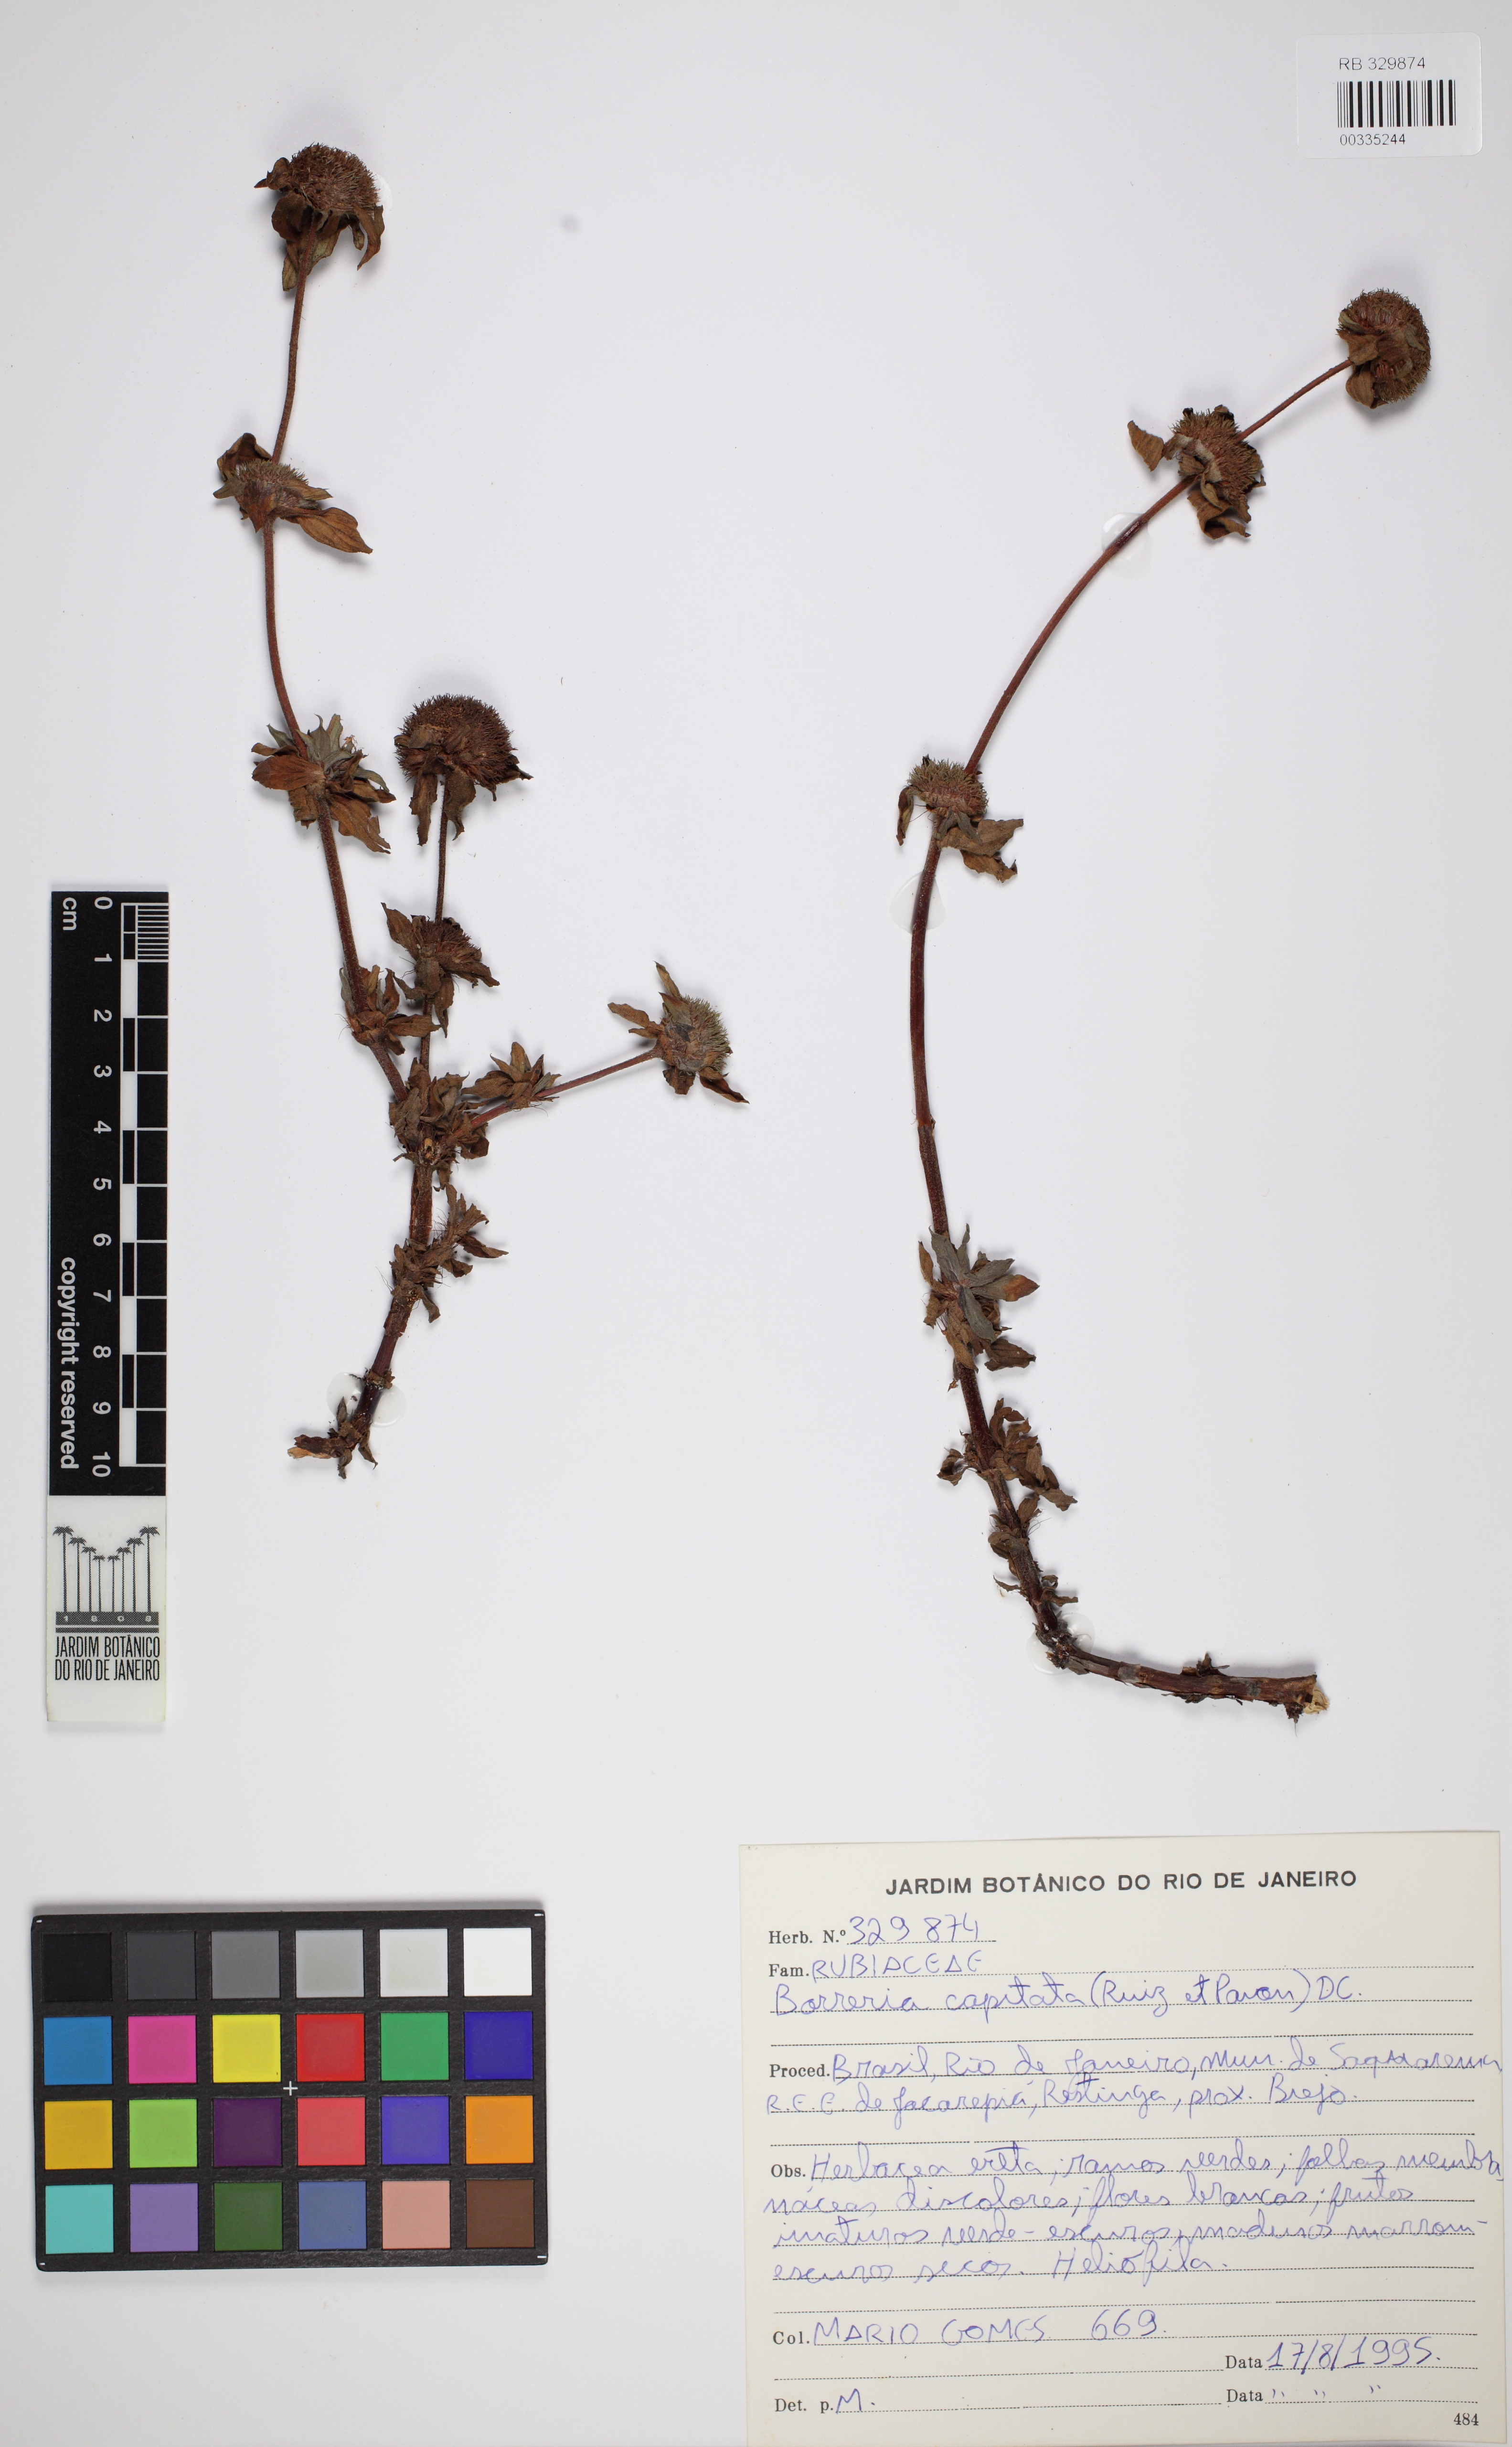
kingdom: Plantae
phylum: Tracheophyta
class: Magnoliopsida
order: Gentianales
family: Rubiaceae
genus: Spermacoce
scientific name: Spermacoce capitata
